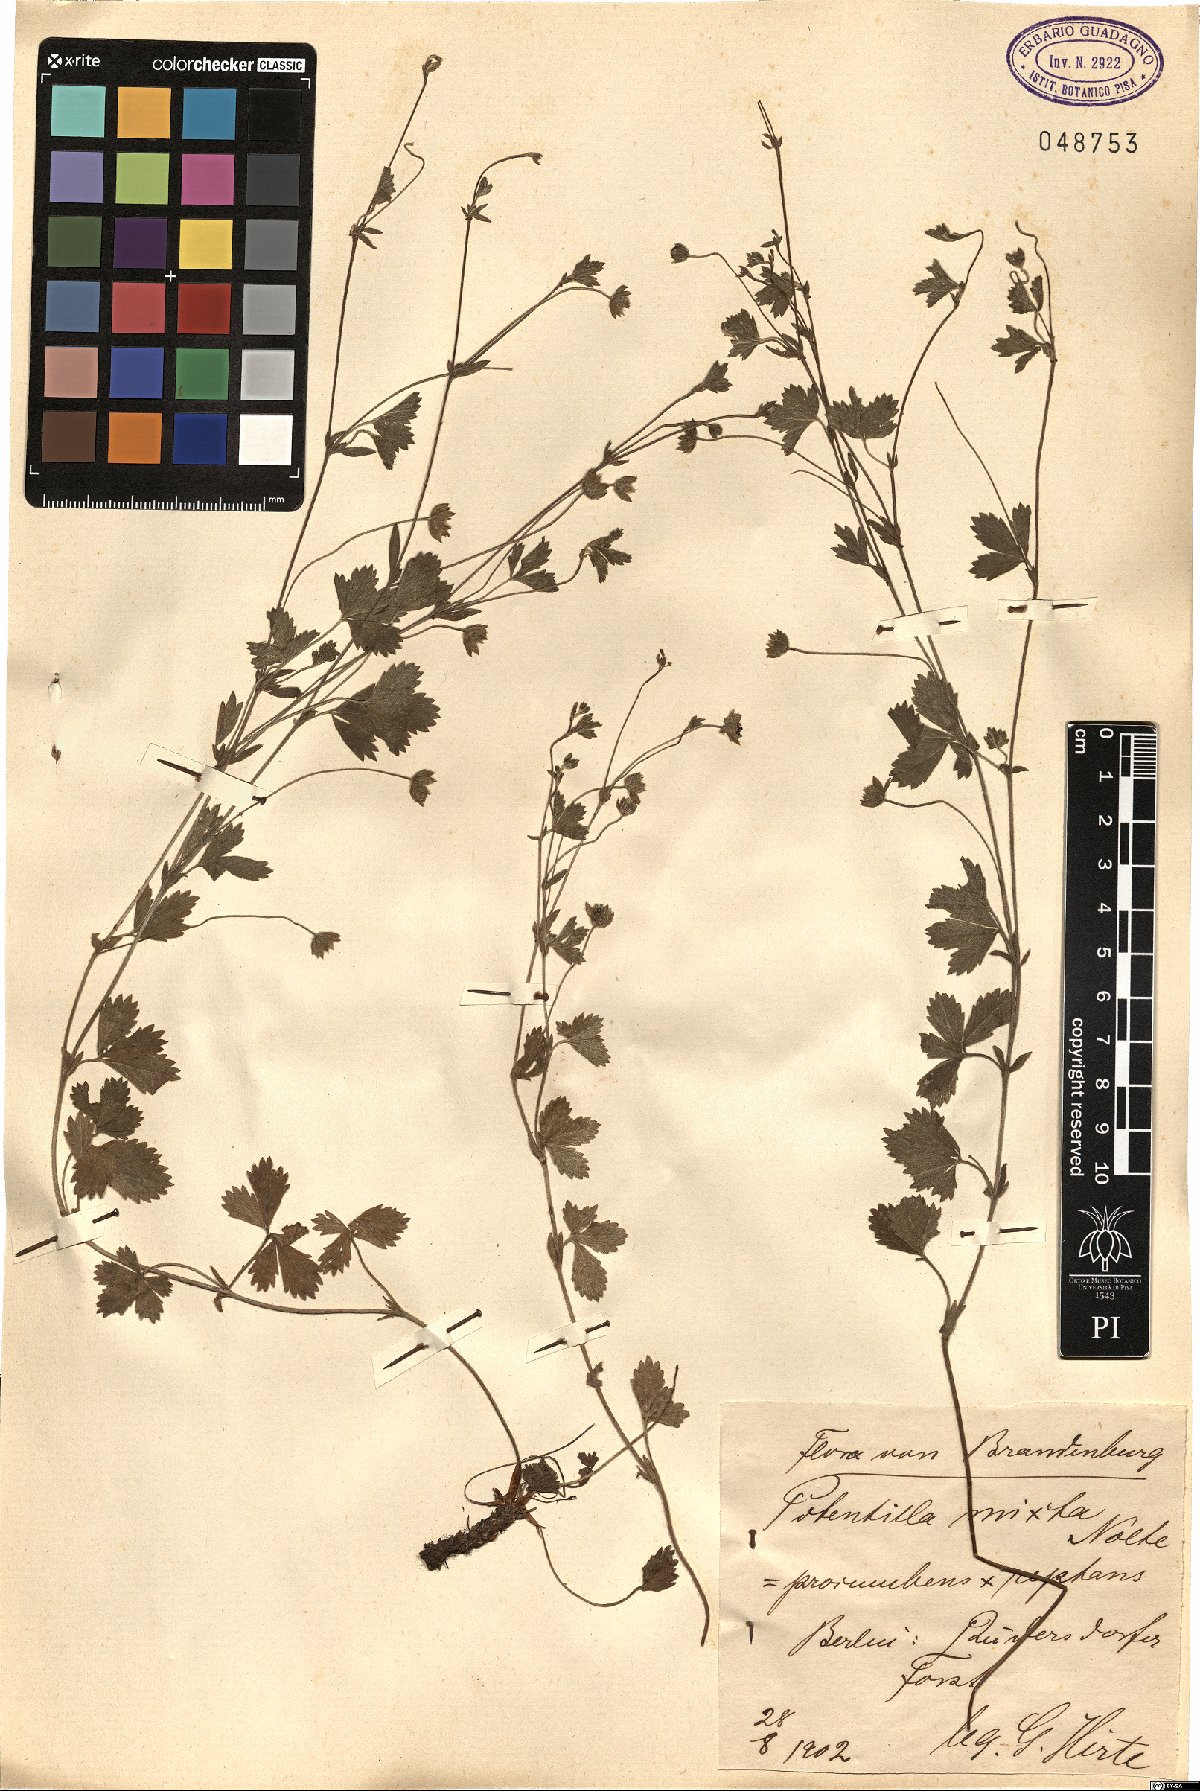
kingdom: Plantae
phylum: Tracheophyta
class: Magnoliopsida
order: Rosales
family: Rosaceae
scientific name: Rosaceae
